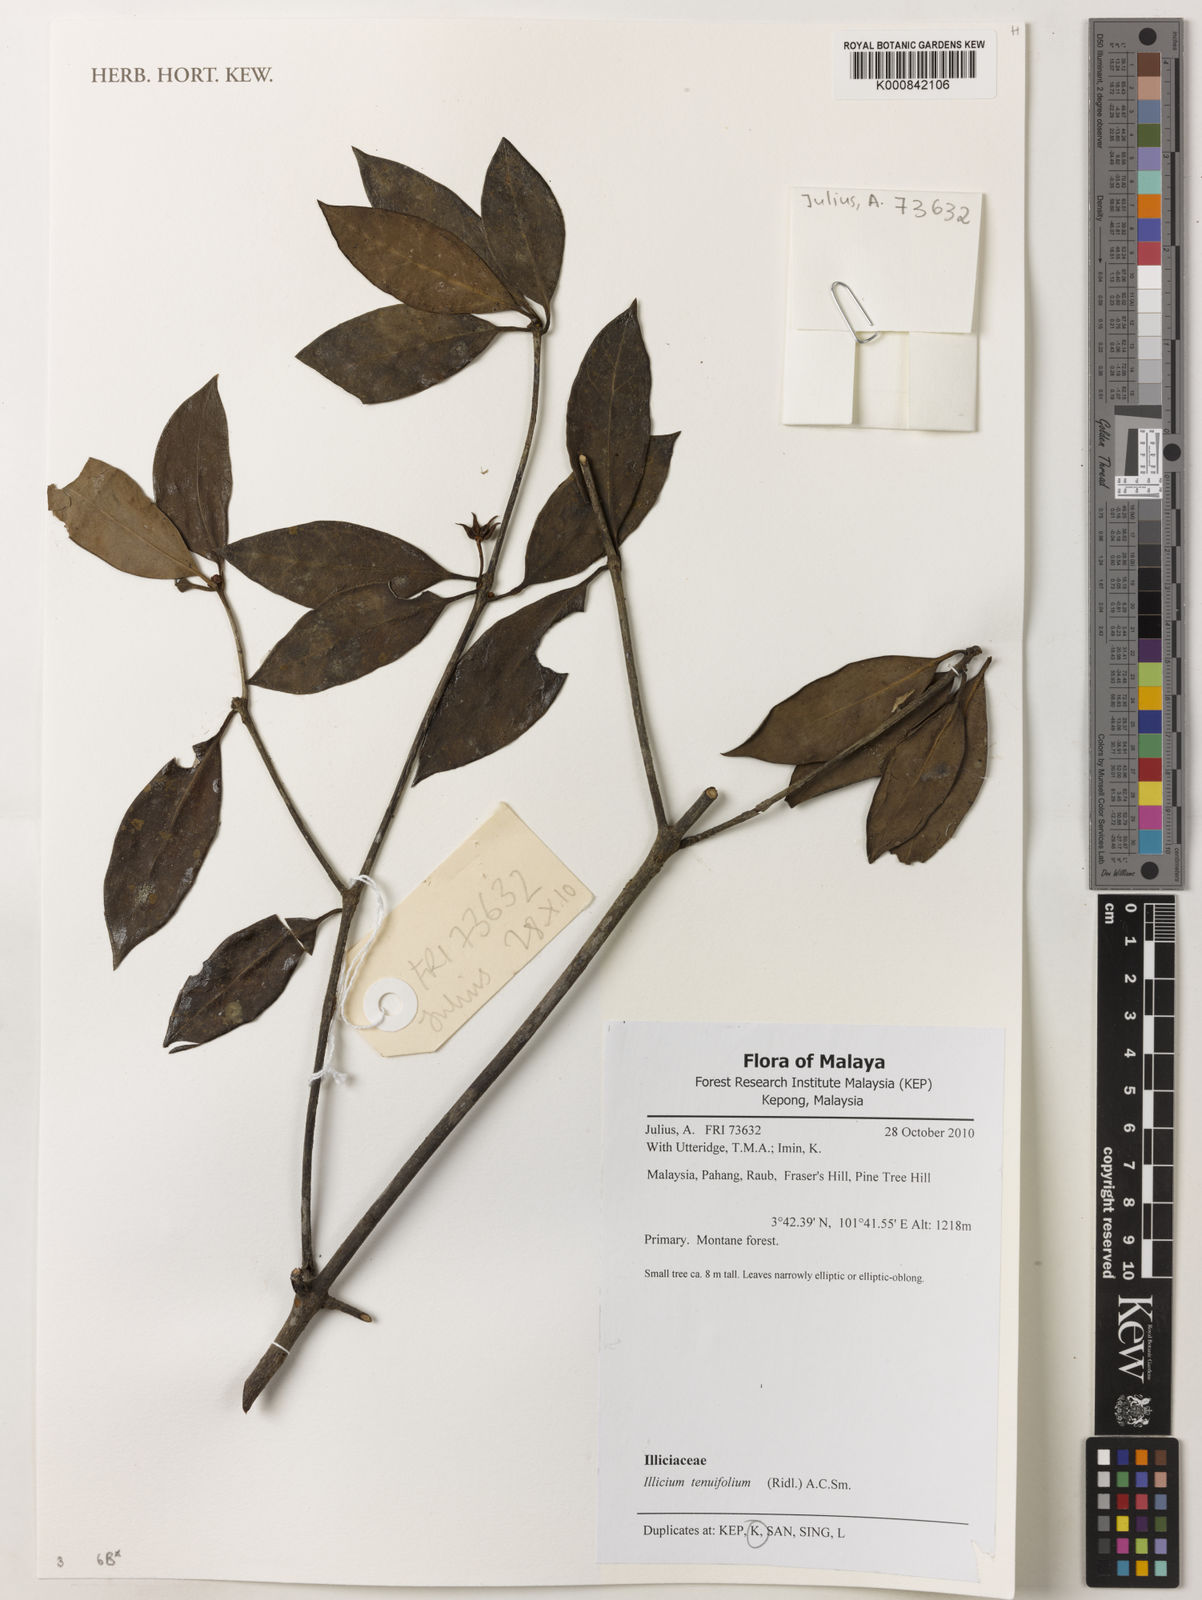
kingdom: Plantae
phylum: Tracheophyta
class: Magnoliopsida
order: Austrobaileyales
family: Schisandraceae
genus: Illicium
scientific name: Illicium tenuifolium
